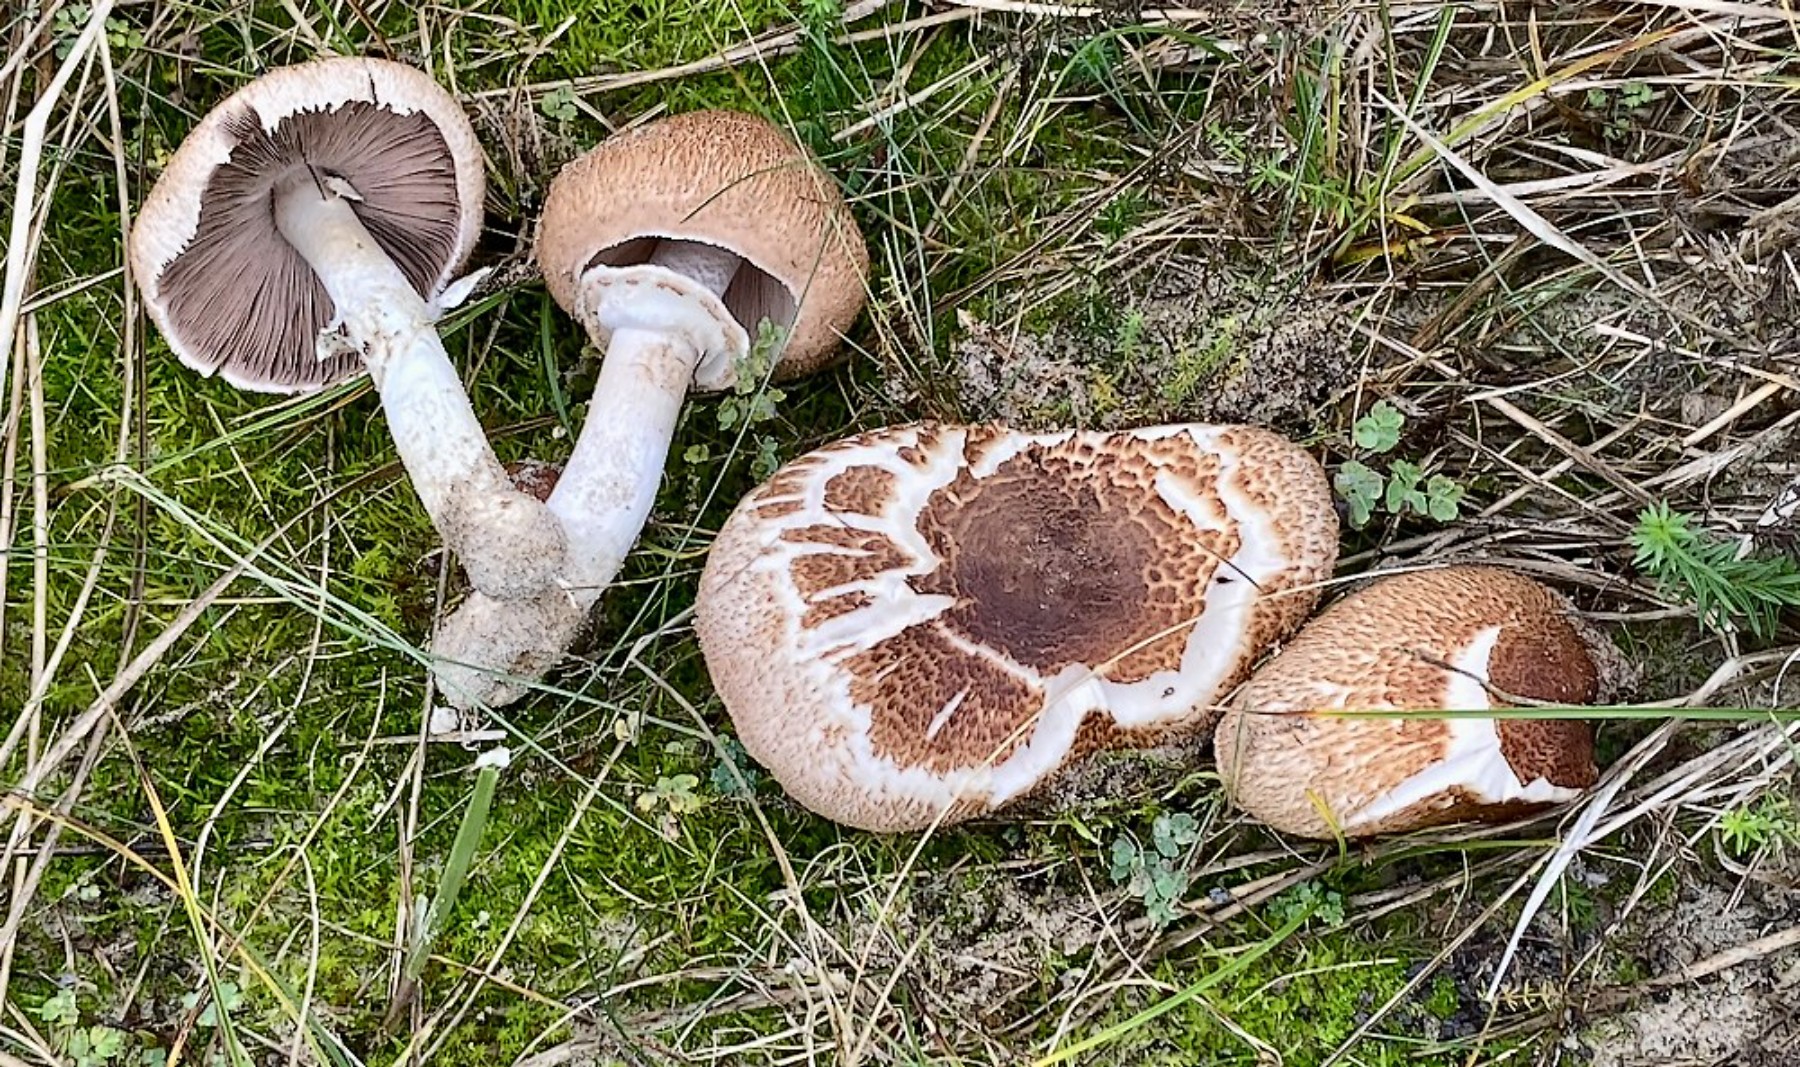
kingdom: Fungi
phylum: Basidiomycota
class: Agaricomycetes
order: Agaricales
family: Agaricaceae
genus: Agaricus
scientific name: Agaricus freirei
